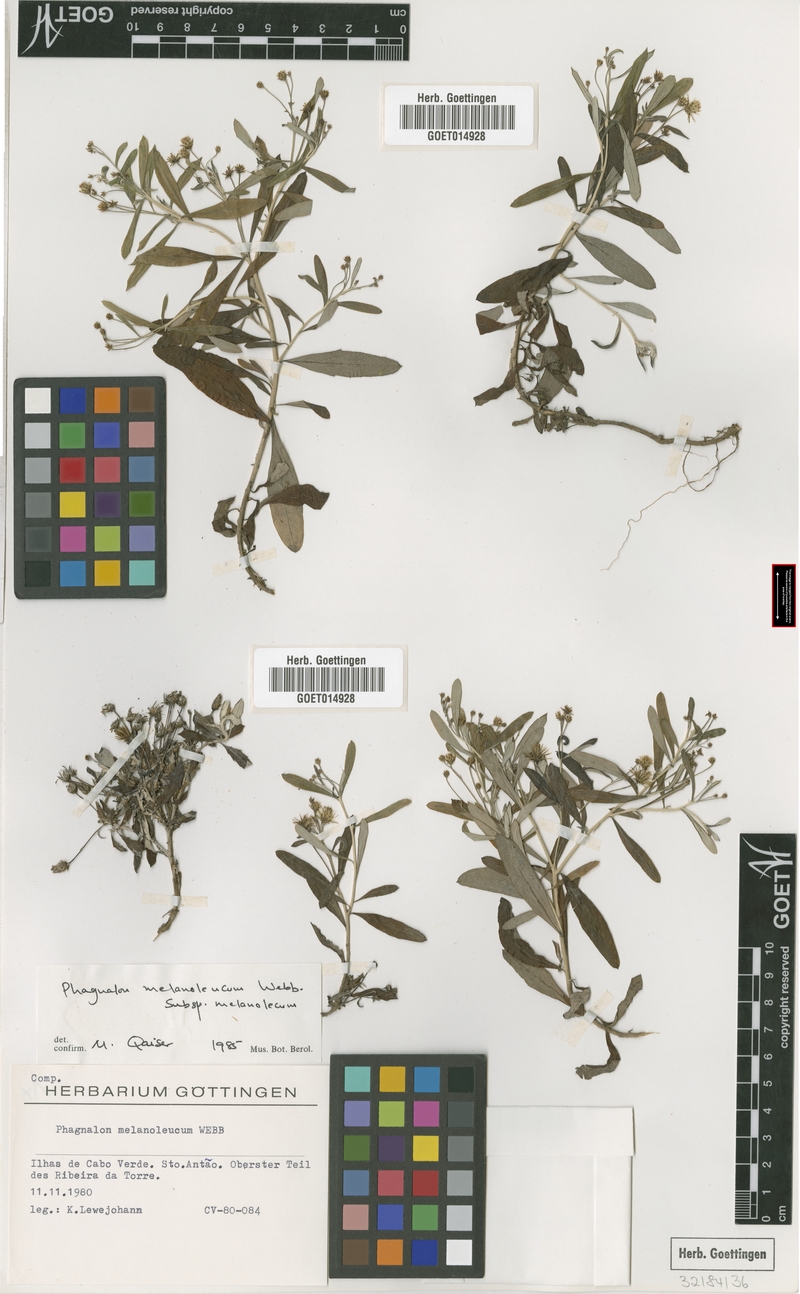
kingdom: Plantae
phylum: Tracheophyta
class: Magnoliopsida
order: Asterales
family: Asteraceae
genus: Phagnalon
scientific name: Phagnalon melanoleucum
